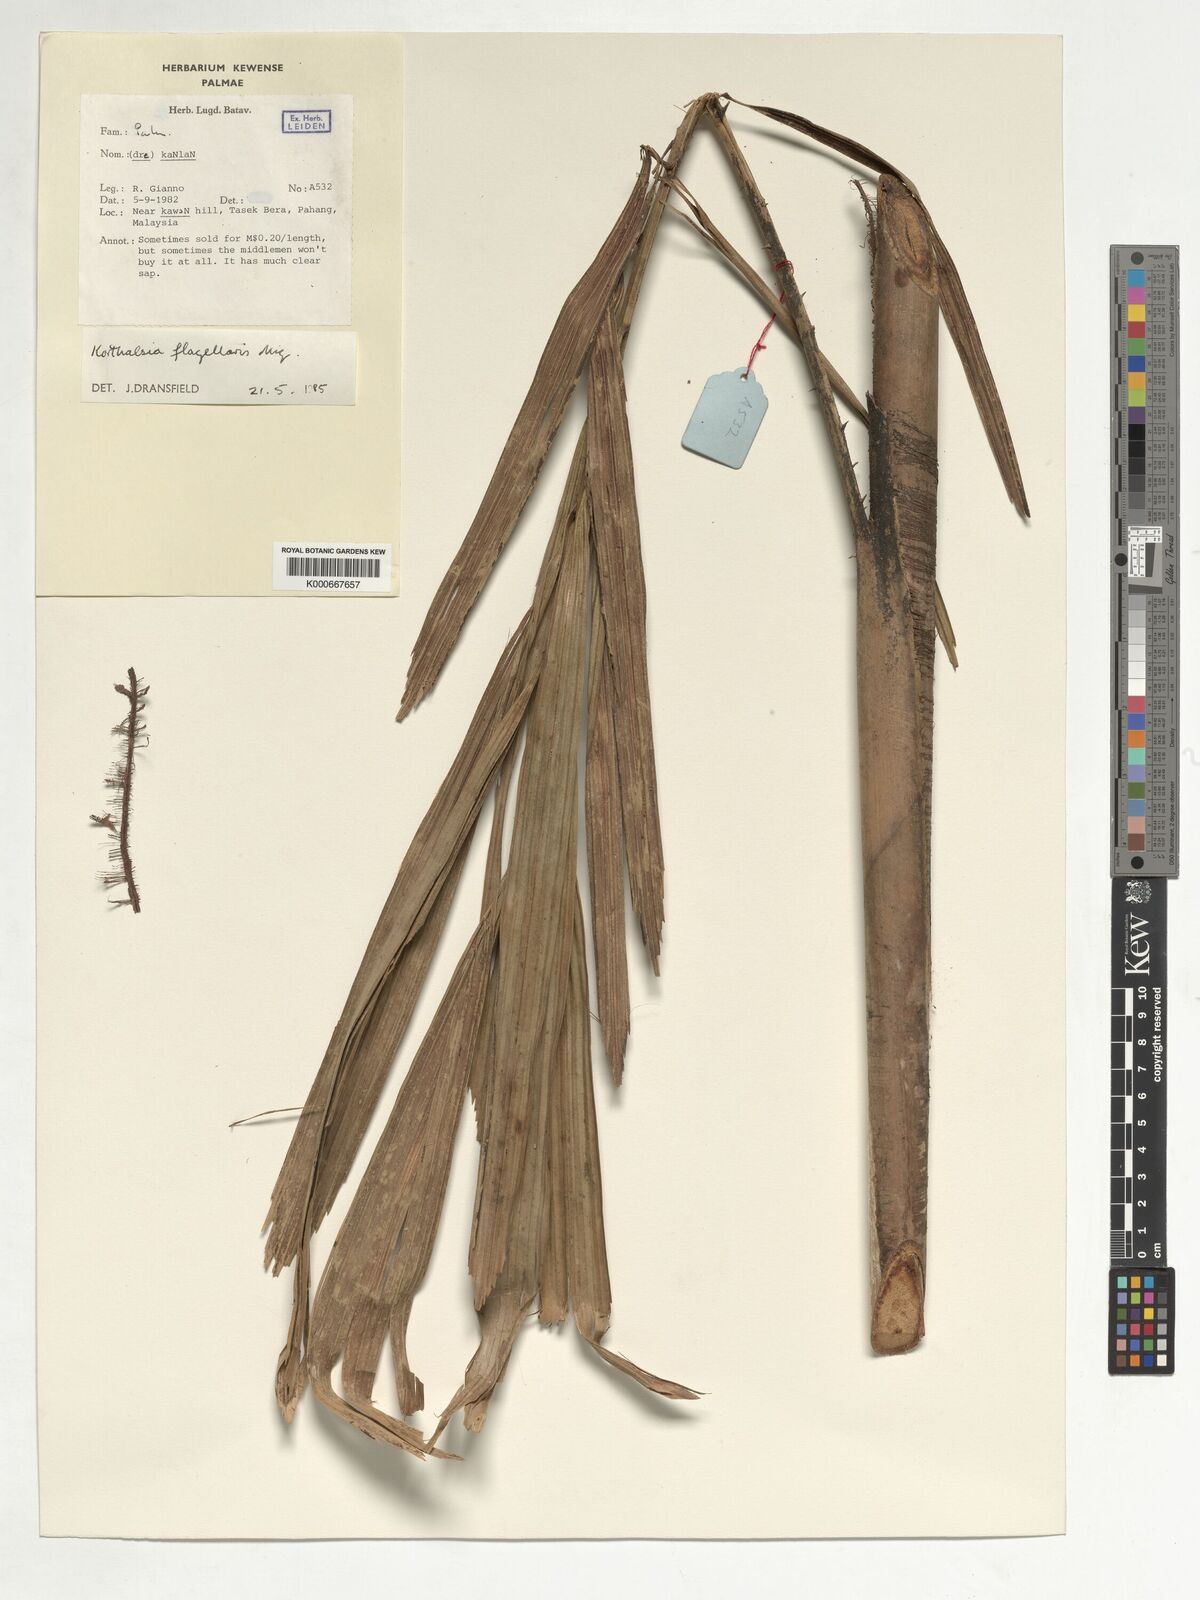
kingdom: Plantae
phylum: Tracheophyta
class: Liliopsida
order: Arecales
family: Arecaceae
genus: Korthalsia
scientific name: Korthalsia flagellaris
